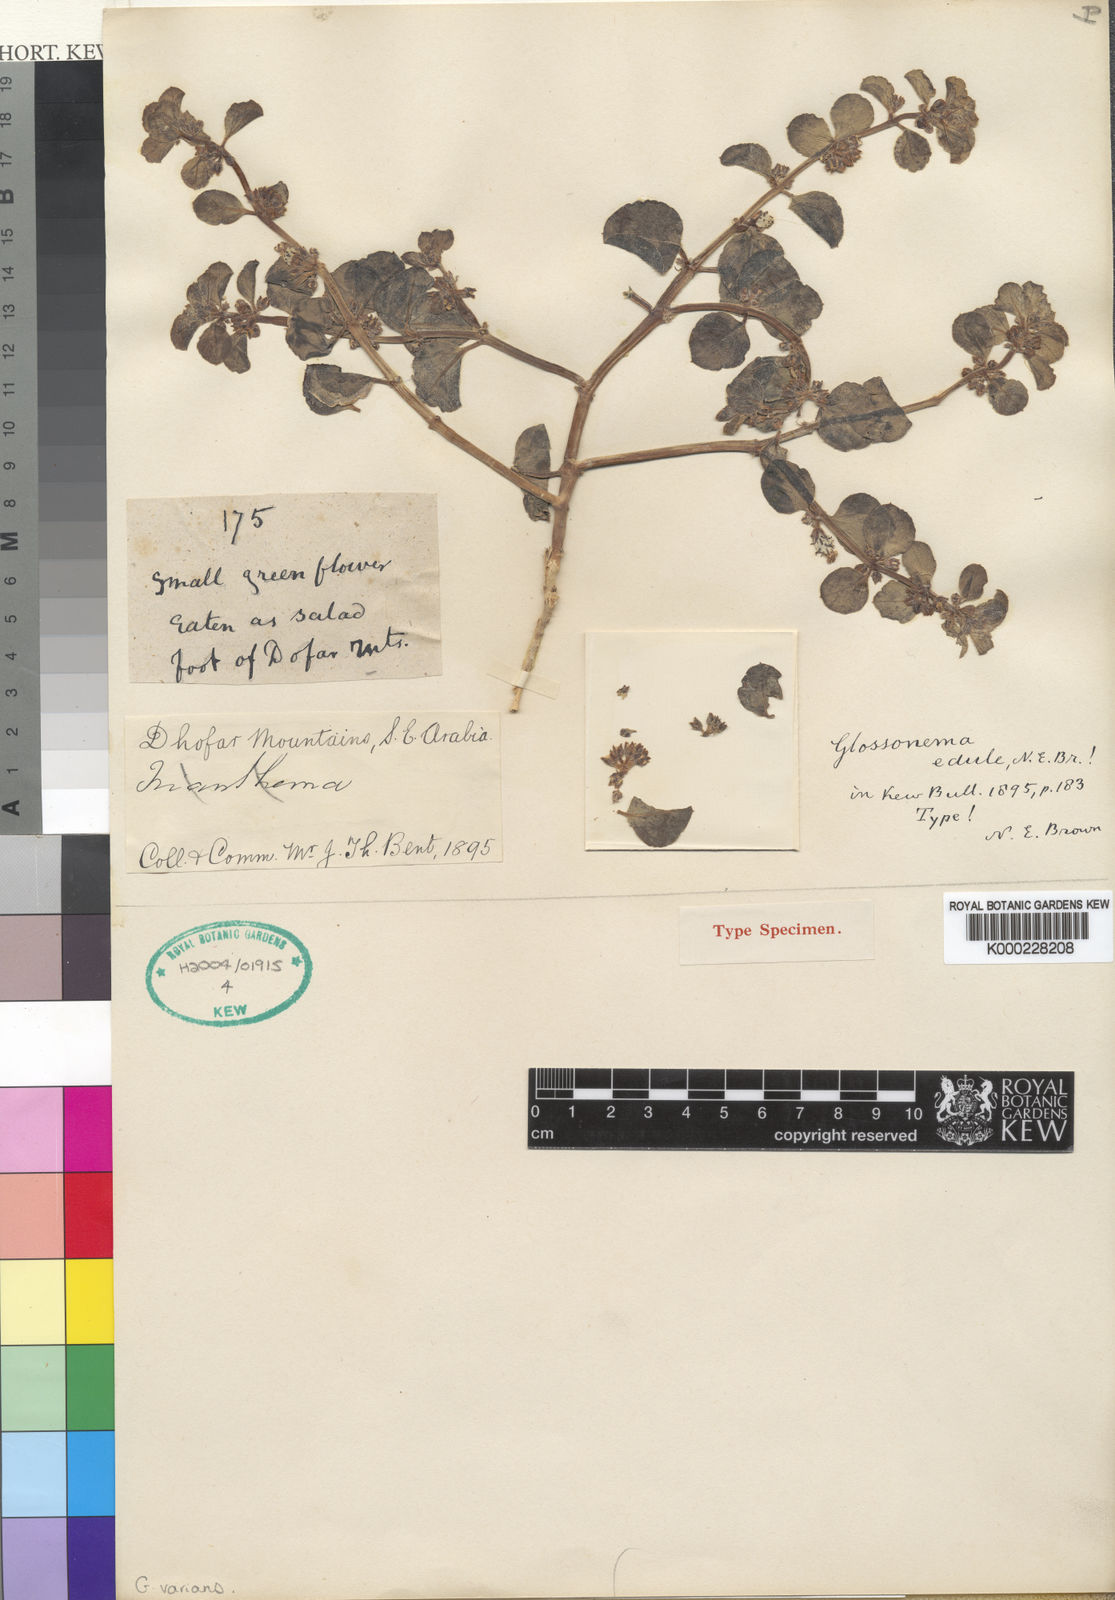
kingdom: Plantae
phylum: Tracheophyta
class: Magnoliopsida
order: Gentianales
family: Apocynaceae
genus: Cynanchum
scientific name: Cynanchum varians
